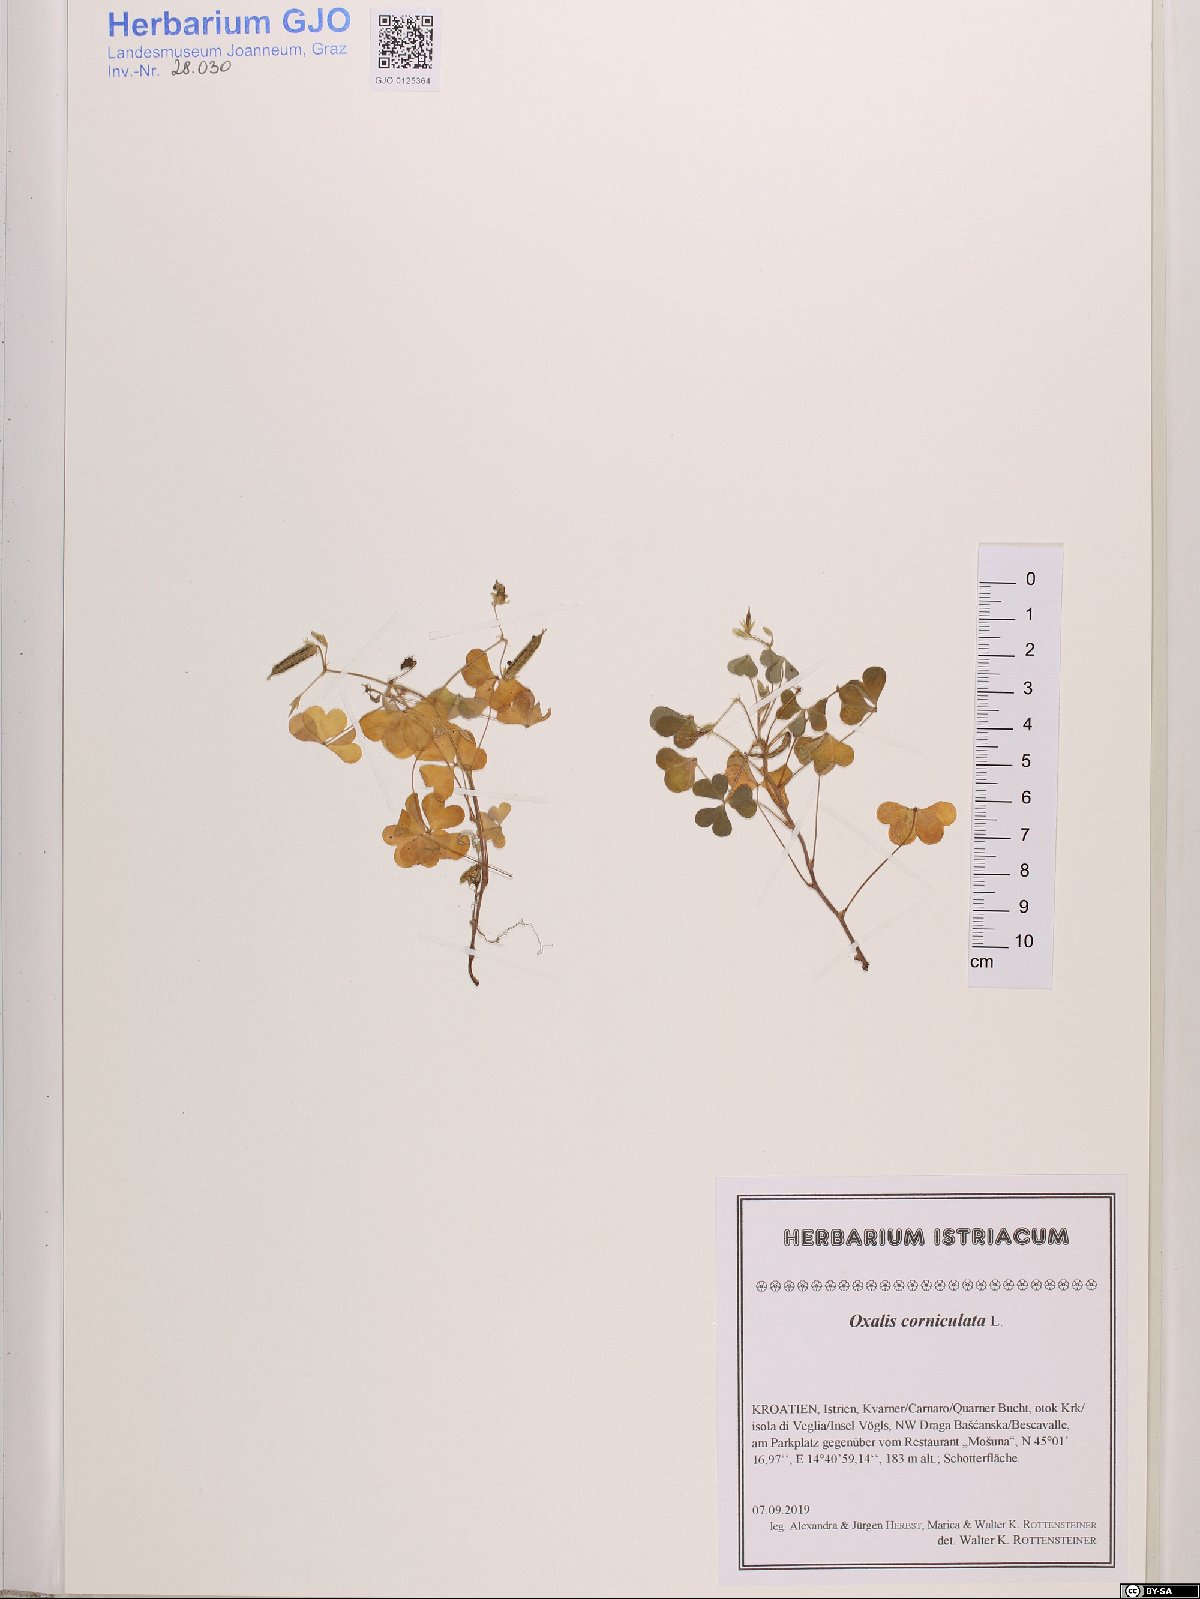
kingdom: Plantae
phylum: Tracheophyta
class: Magnoliopsida
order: Oxalidales
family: Oxalidaceae
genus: Oxalis
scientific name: Oxalis corniculata
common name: Procumbent yellow-sorrel
